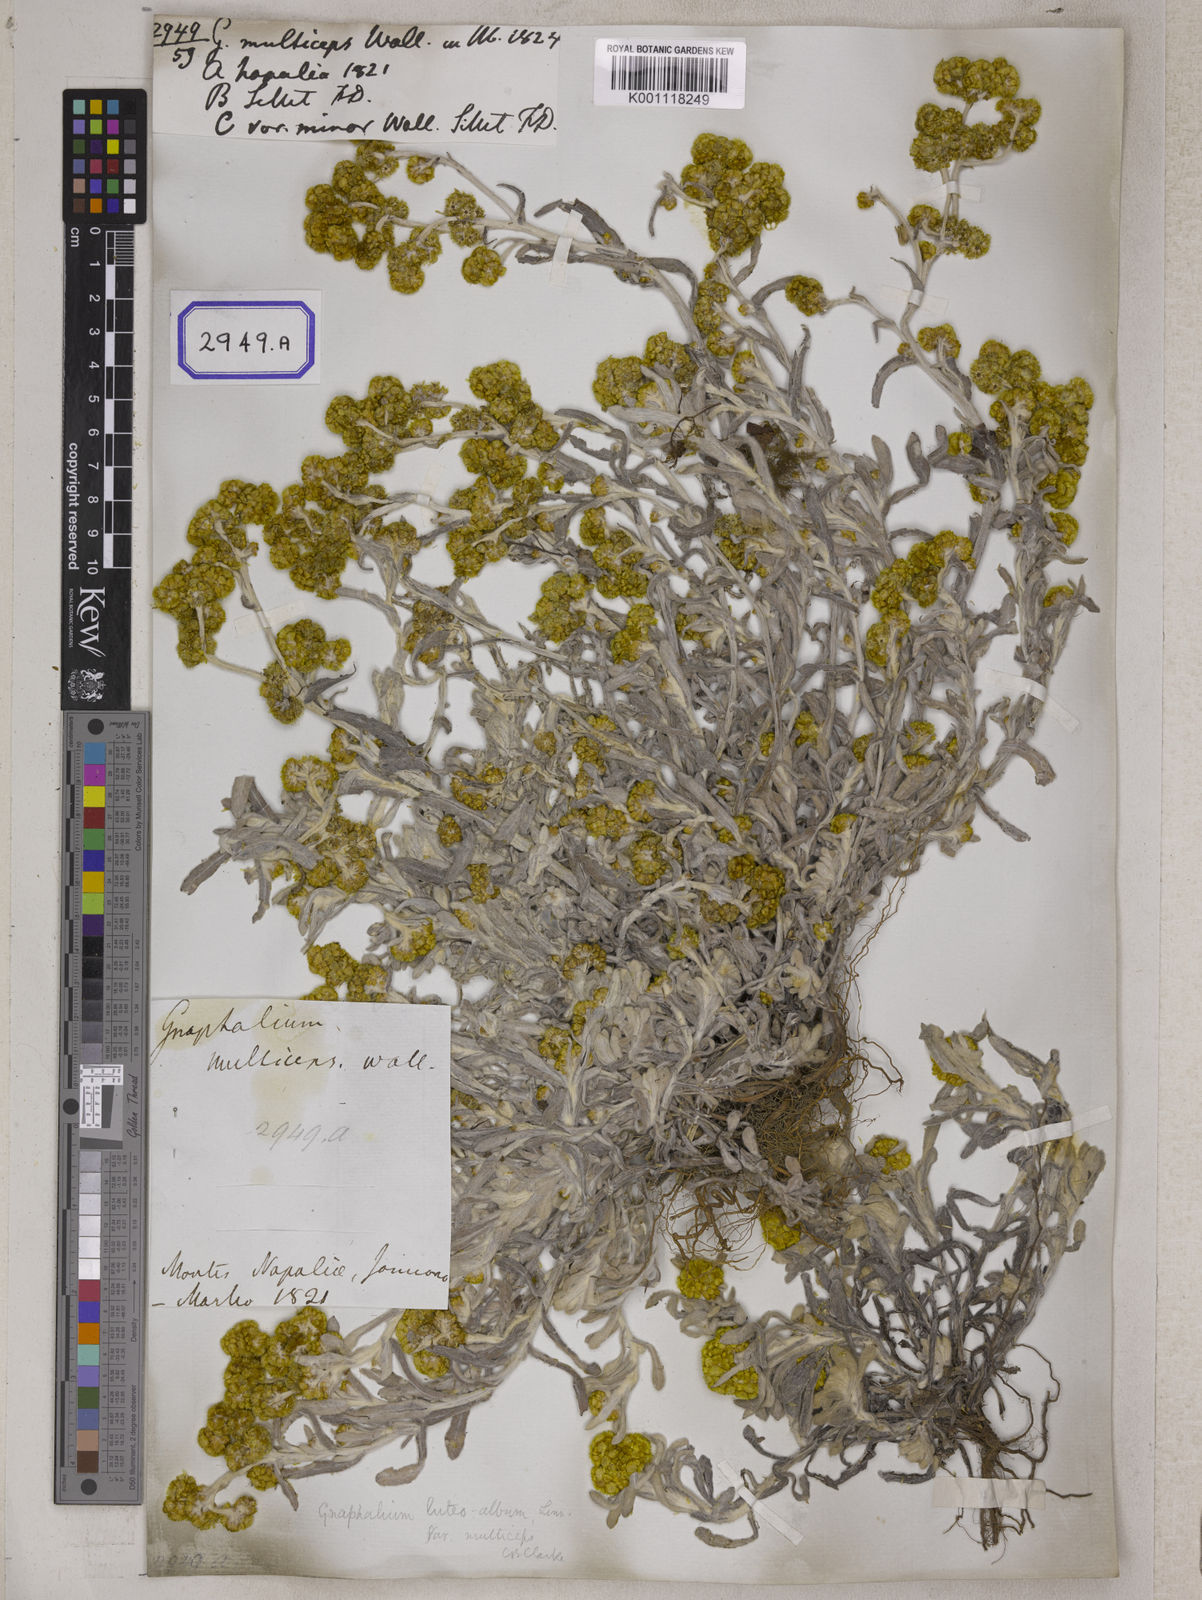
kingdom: Plantae
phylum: Tracheophyta
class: Magnoliopsida
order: Asterales
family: Asteraceae
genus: Pseudognaphalium
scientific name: Pseudognaphalium affine
